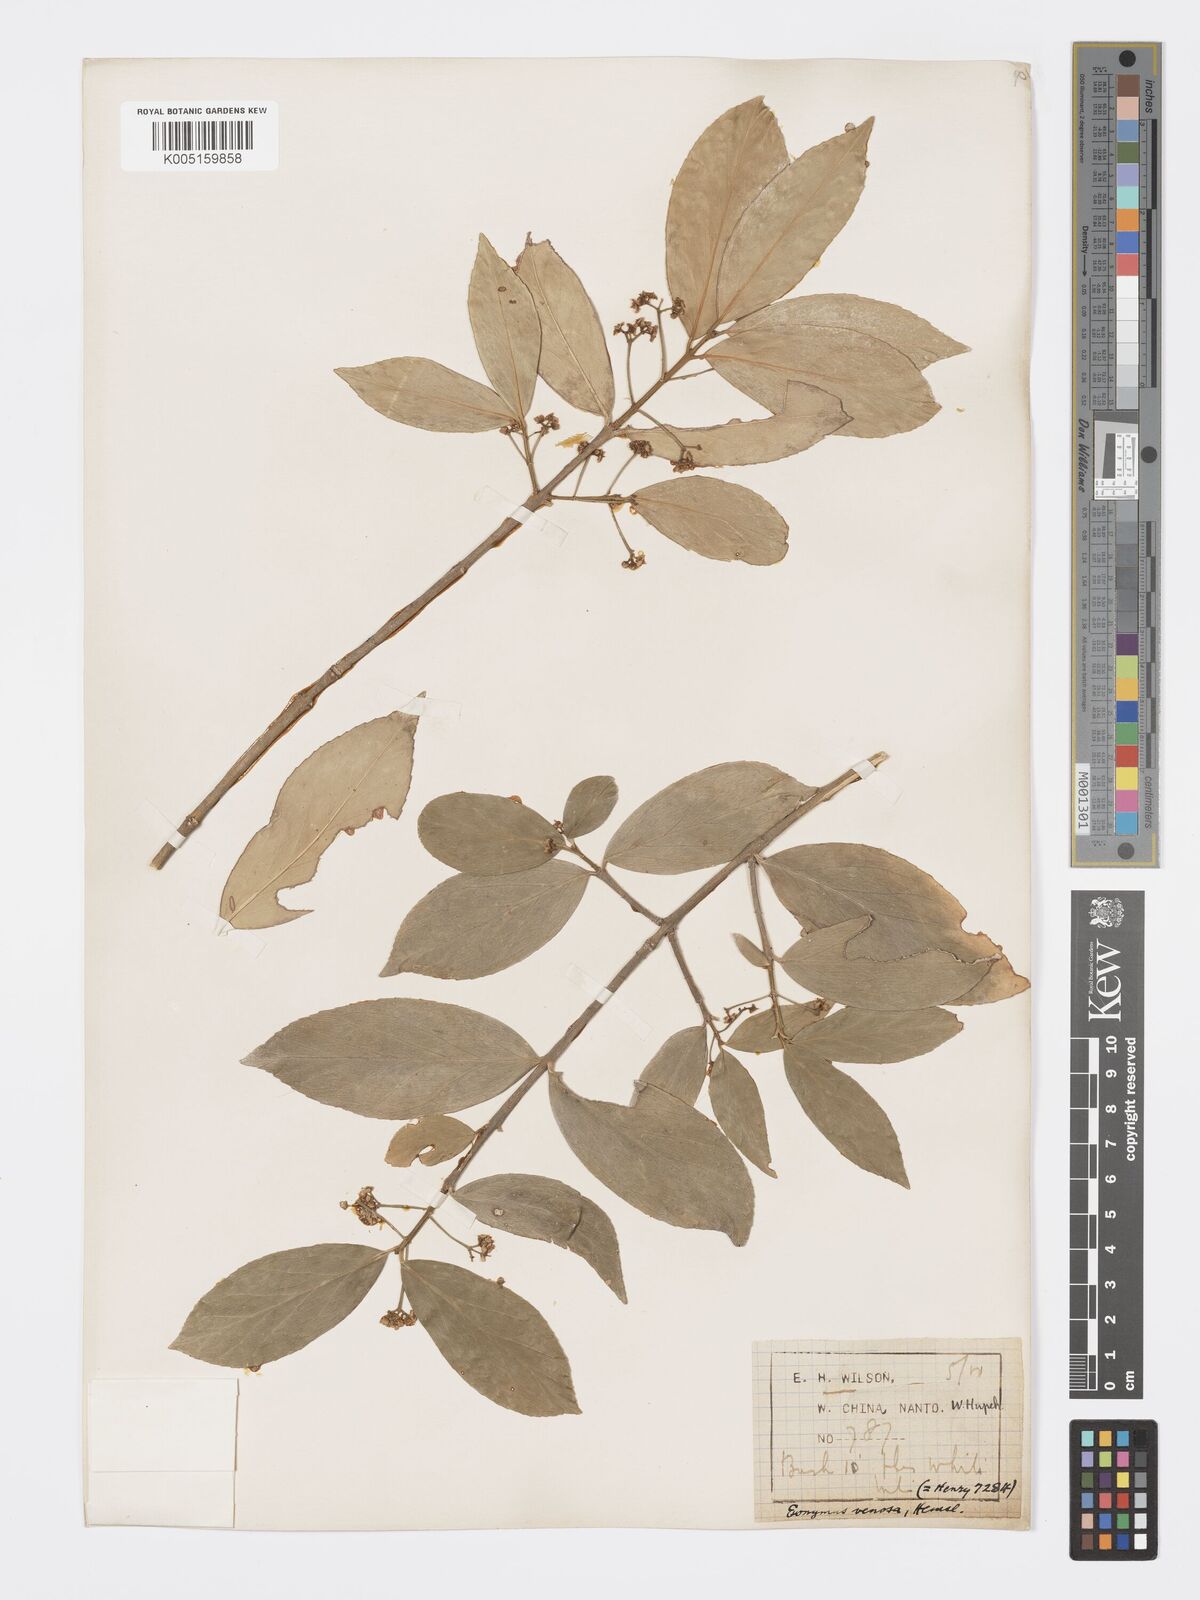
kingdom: Plantae
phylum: Tracheophyta
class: Magnoliopsida
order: Celastrales
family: Celastraceae
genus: Euonymus
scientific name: Euonymus venosus
